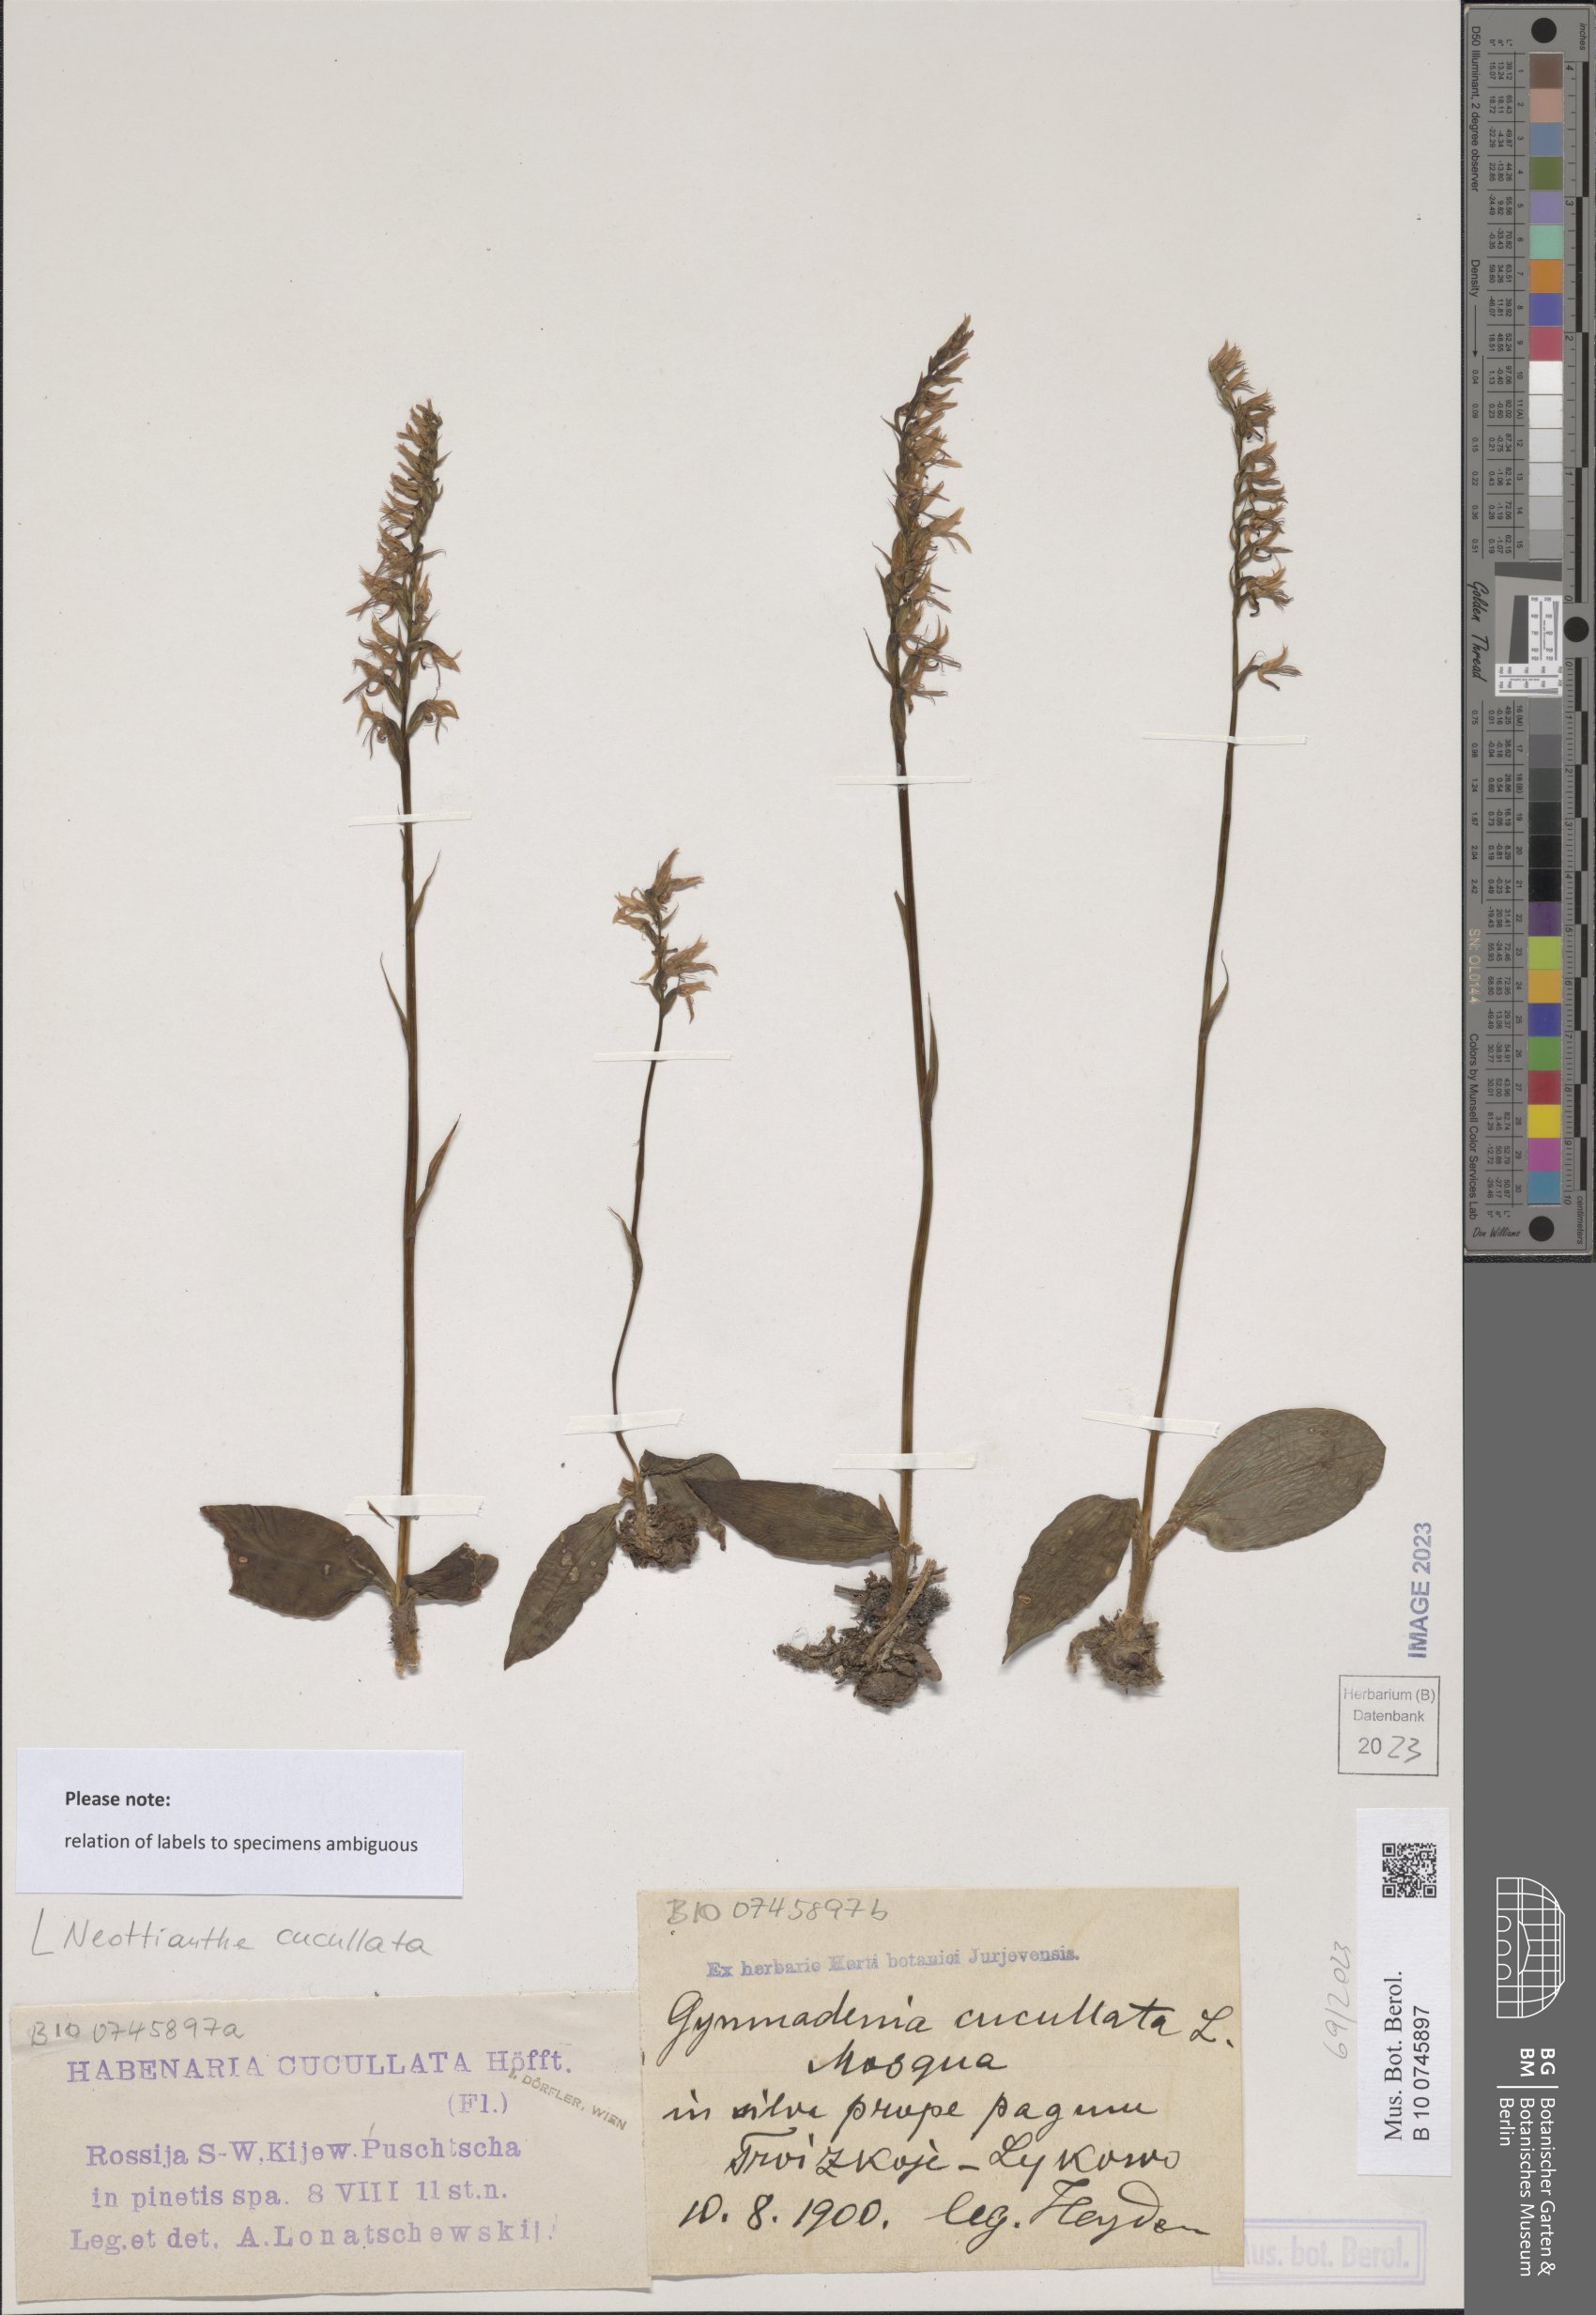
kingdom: Plantae
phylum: Tracheophyta
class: Liliopsida
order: Asparagales
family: Orchidaceae
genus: Hemipilia
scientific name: Hemipilia cucullata
